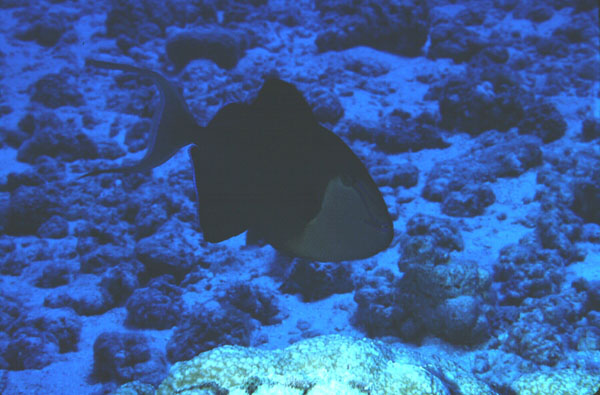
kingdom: Animalia
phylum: Chordata
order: Tetraodontiformes
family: Balistidae
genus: Odonus
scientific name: Odonus niger
